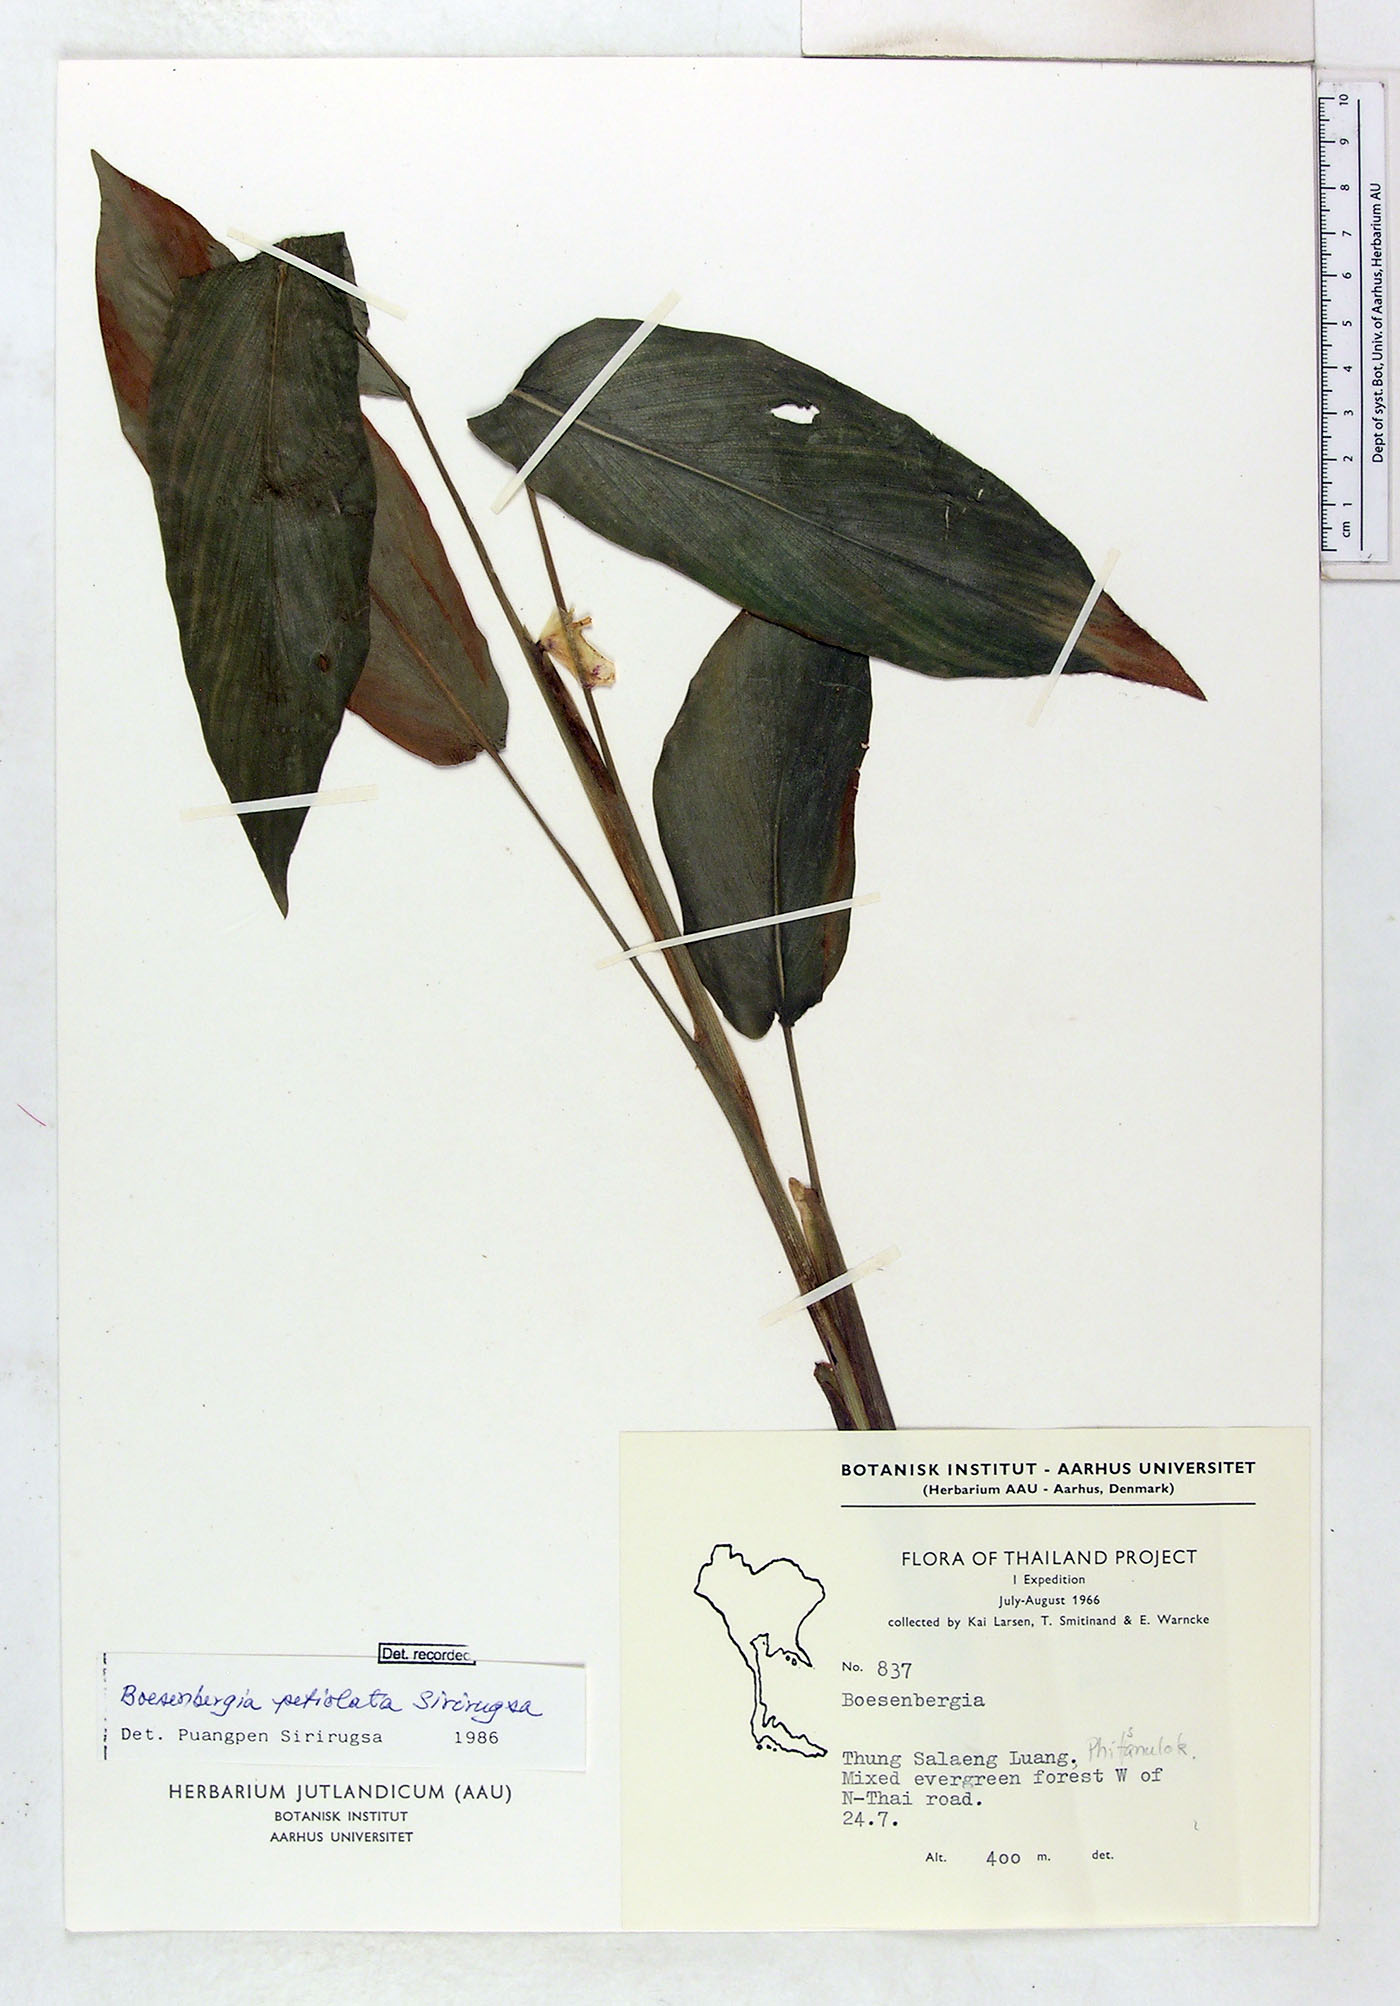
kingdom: Plantae
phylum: Tracheophyta
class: Liliopsida
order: Zingiberales
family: Zingiberaceae
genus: Boesenbergia
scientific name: Boesenbergia petiolata
